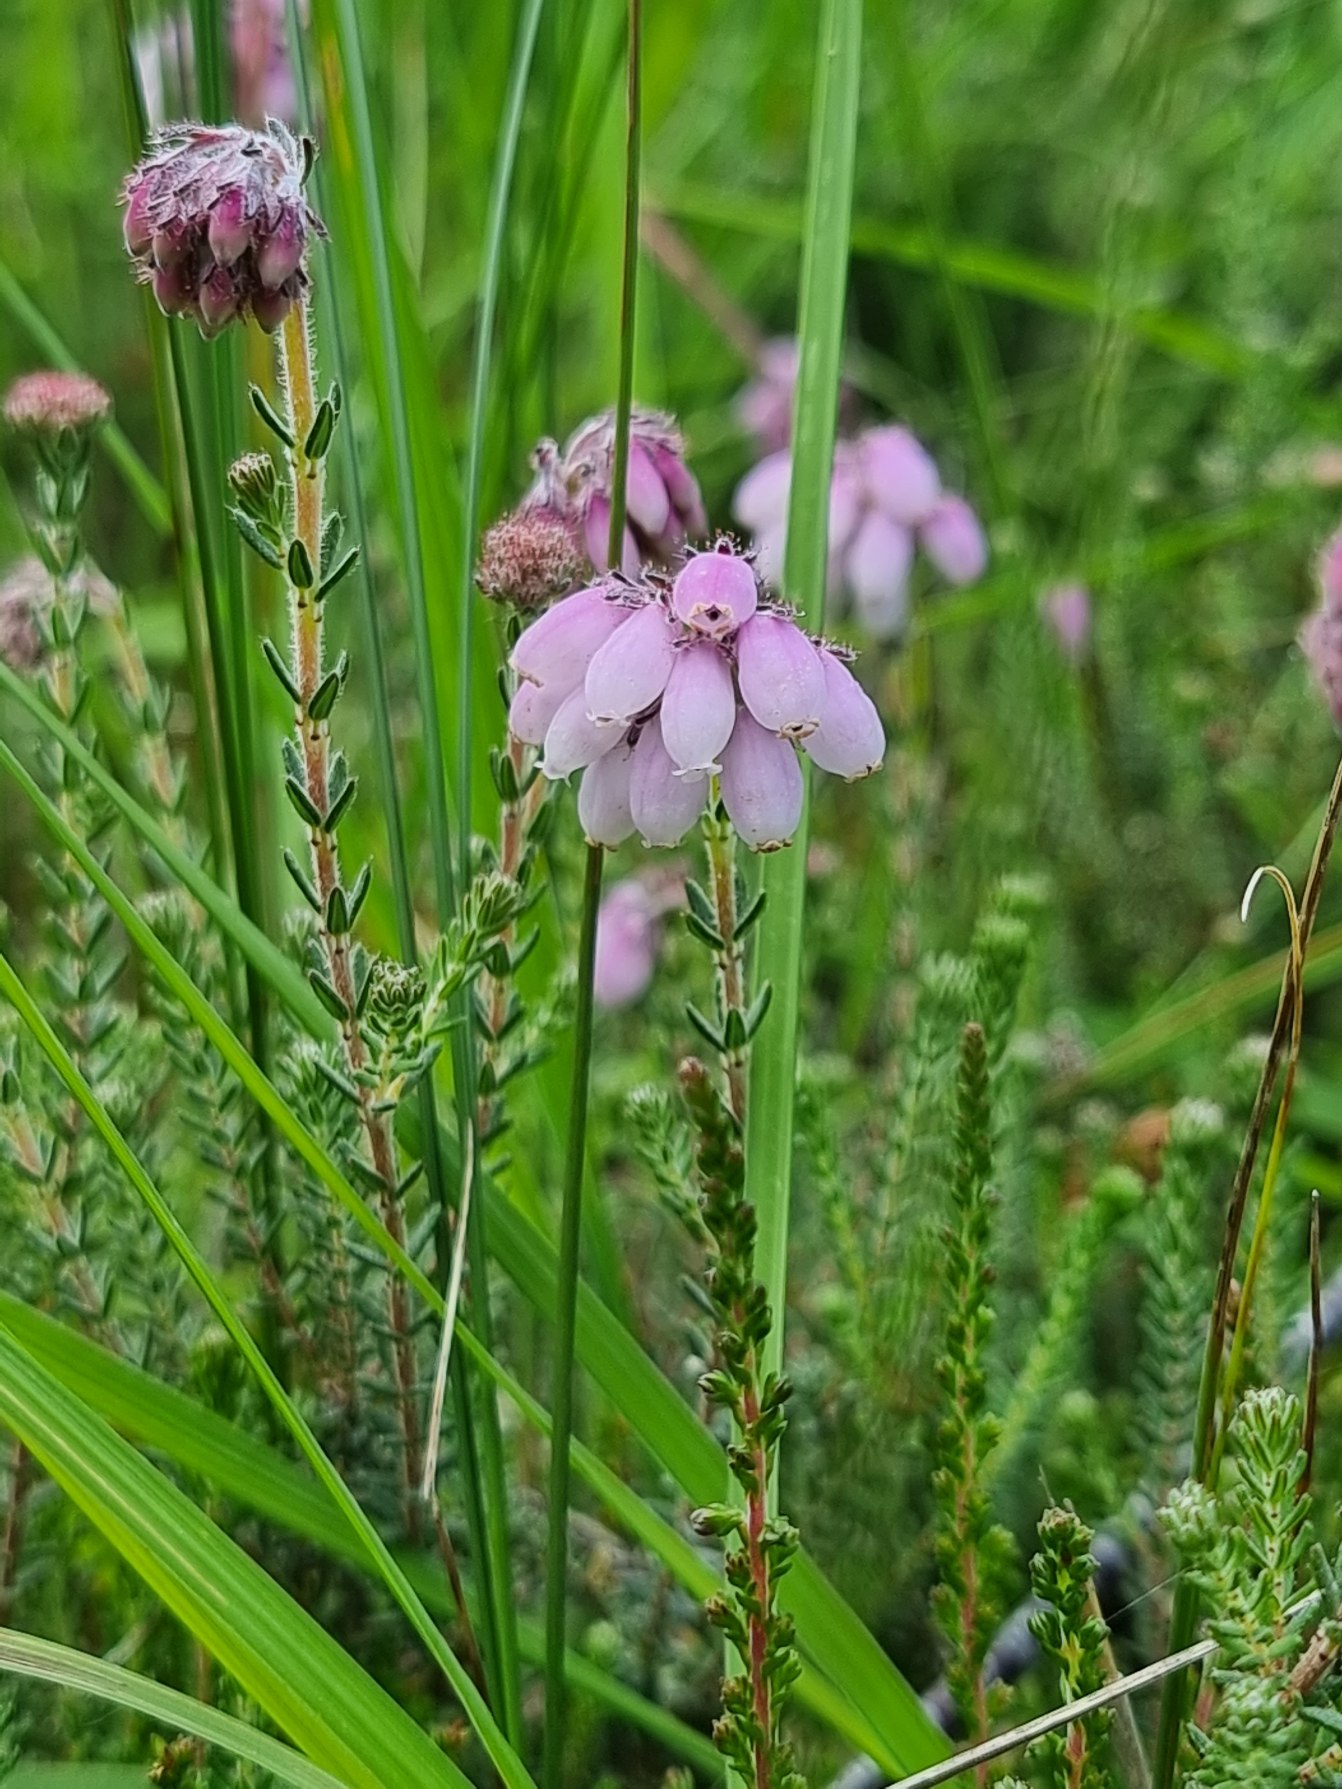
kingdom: Plantae
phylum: Tracheophyta
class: Magnoliopsida
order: Ericales
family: Ericaceae
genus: Erica
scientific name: Erica tetralix
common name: Klokkelyng
